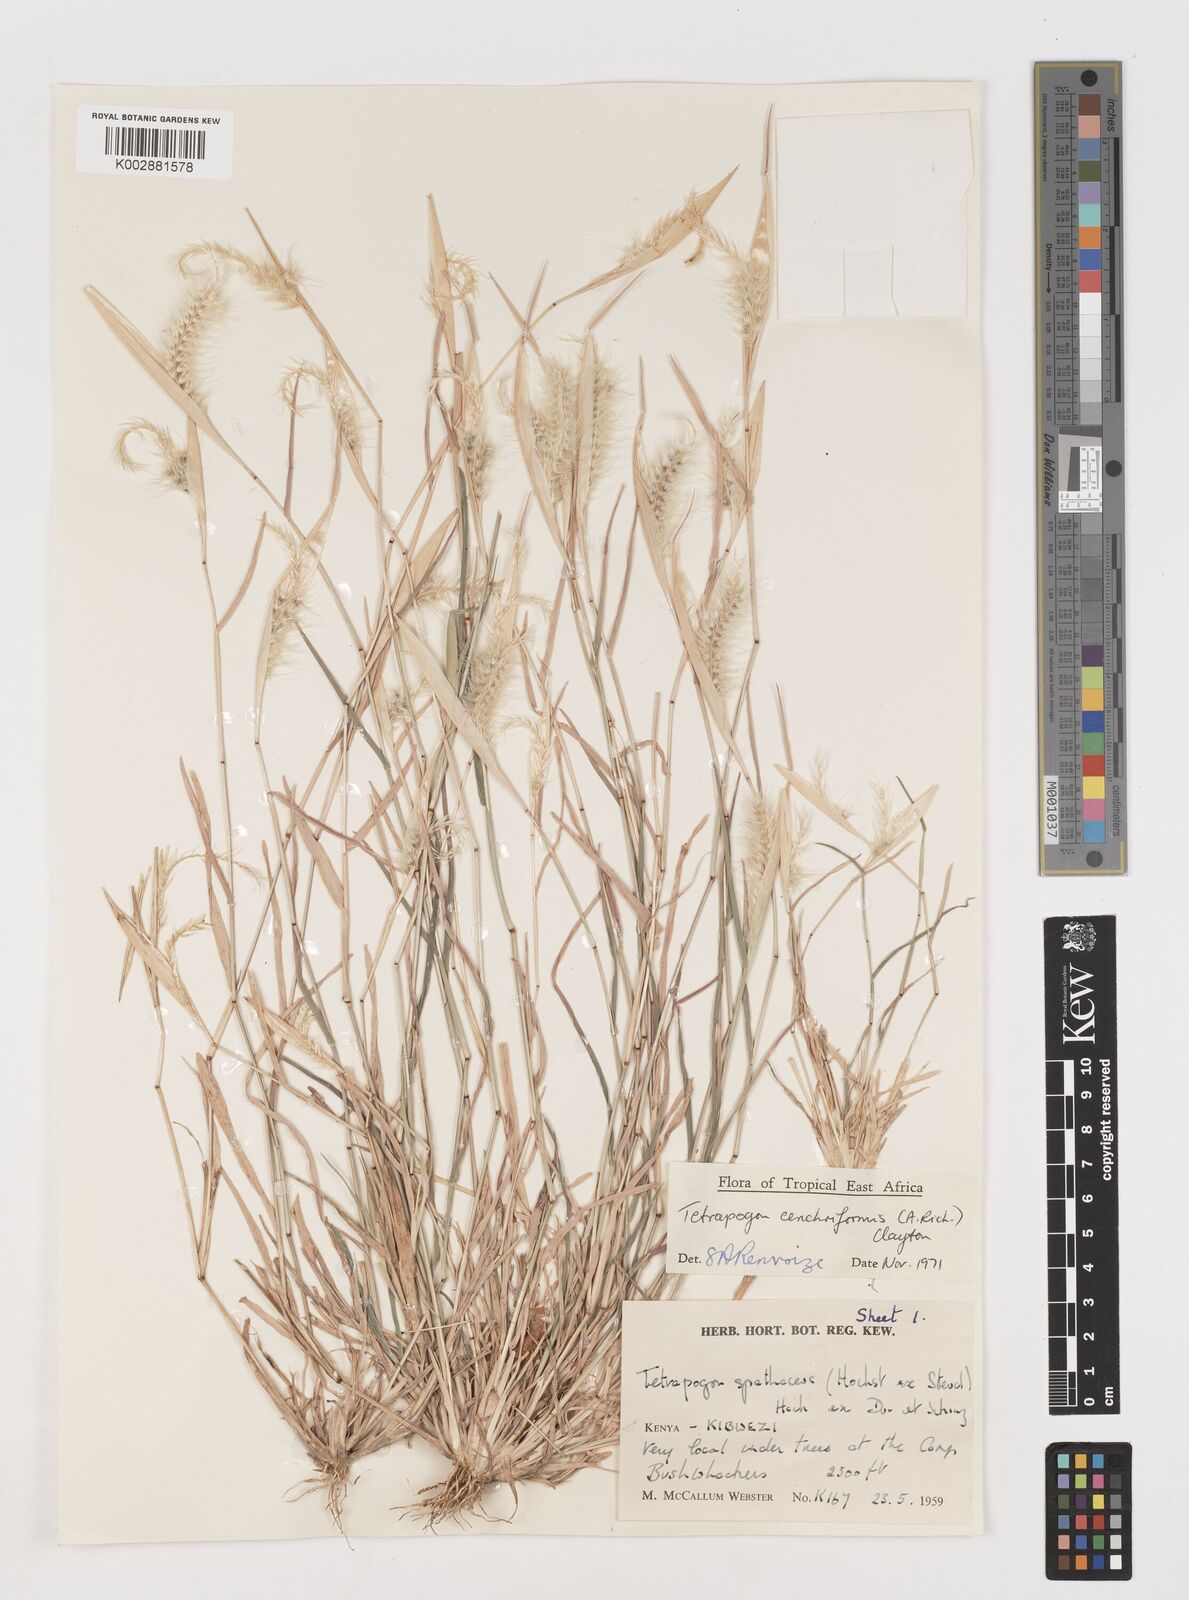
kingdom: Plantae
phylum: Tracheophyta
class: Liliopsida
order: Poales
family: Poaceae
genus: Tetrapogon
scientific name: Tetrapogon cenchriformis
